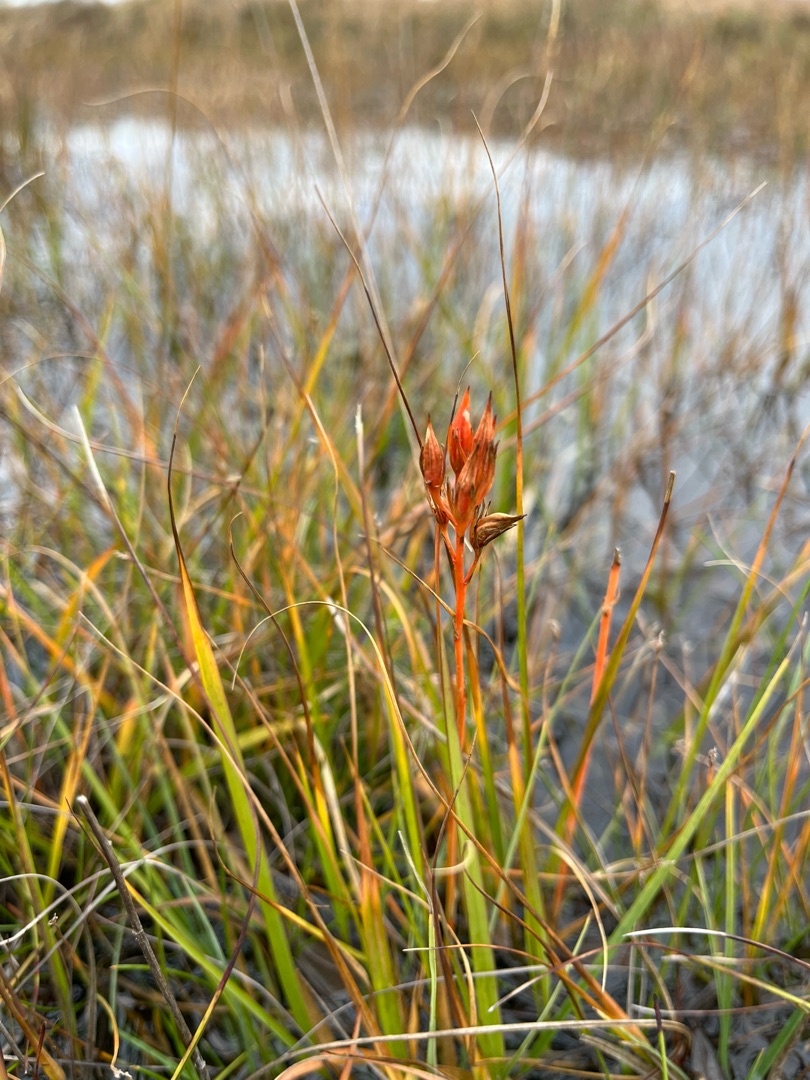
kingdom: Plantae
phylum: Tracheophyta
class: Liliopsida
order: Dioscoreales
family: Nartheciaceae
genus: Narthecium
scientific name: Narthecium ossifragum
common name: Benbræk
